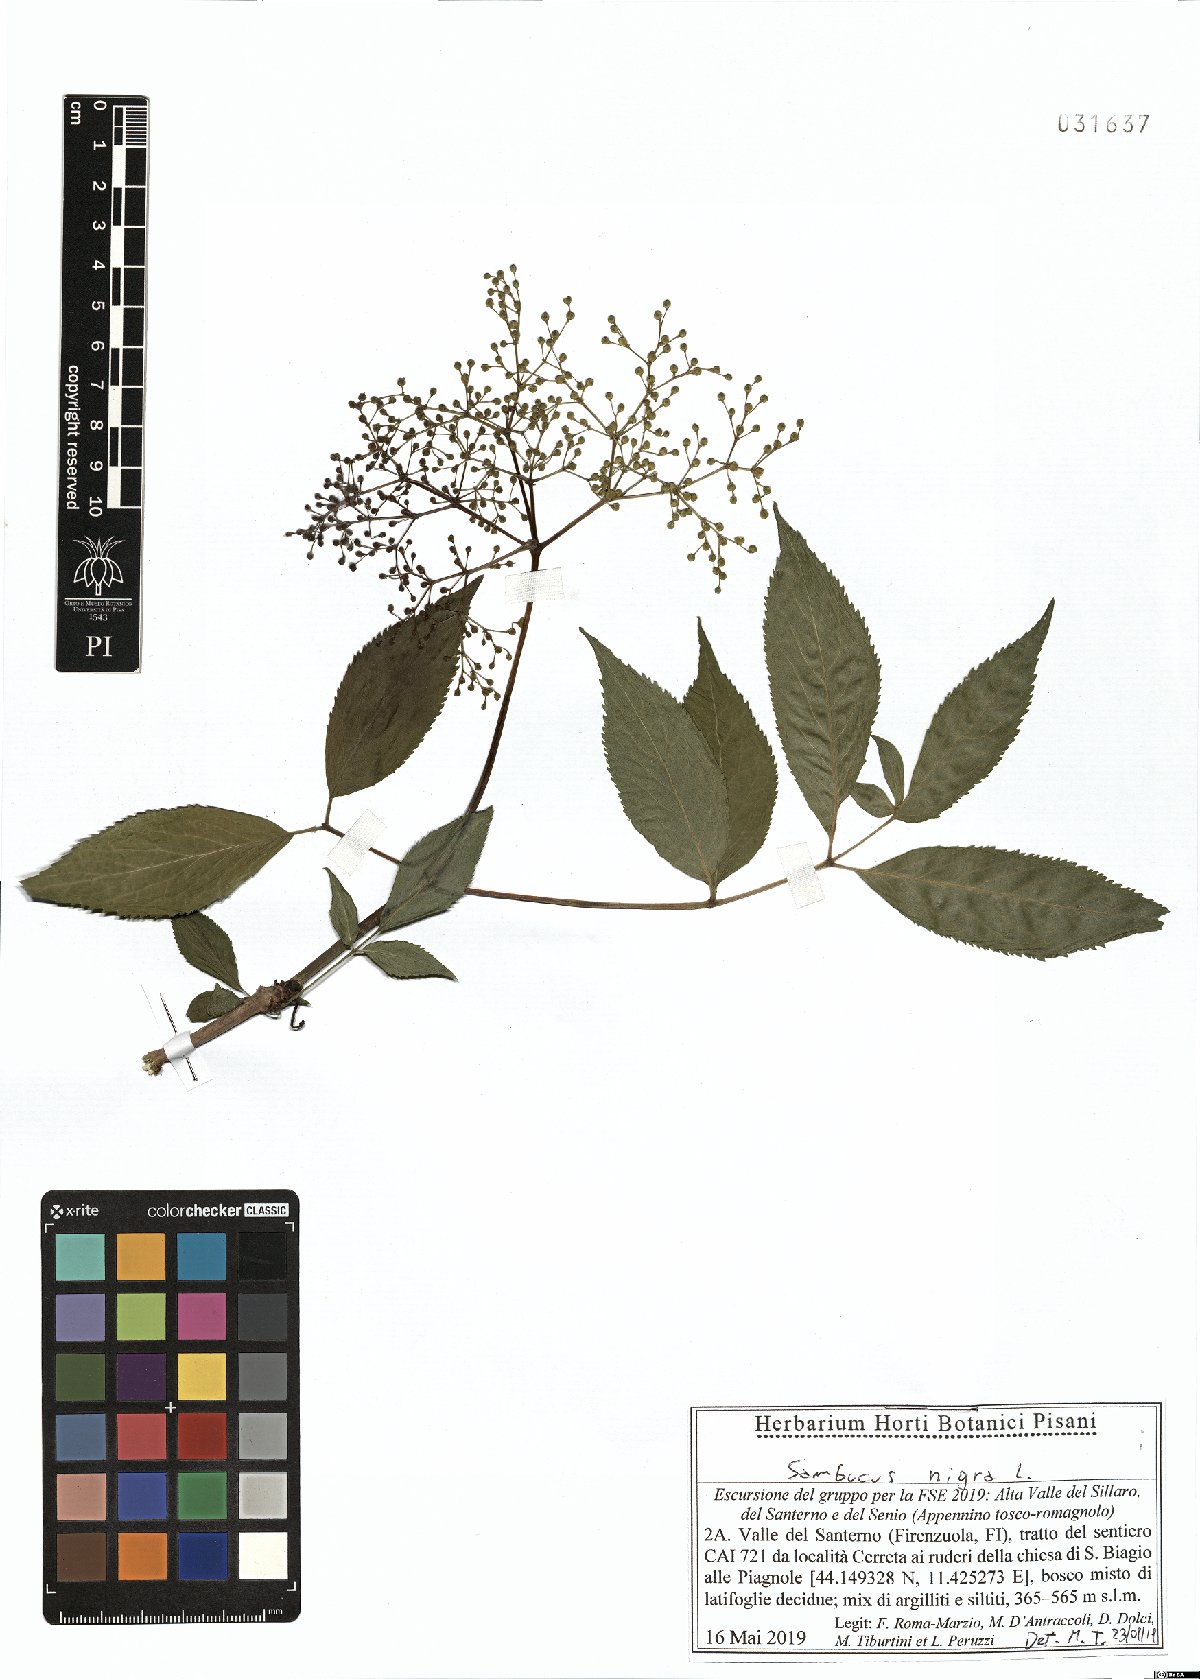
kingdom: Plantae
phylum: Tracheophyta
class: Magnoliopsida
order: Dipsacales
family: Viburnaceae
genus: Sambucus
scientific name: Sambucus nigra
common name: Elder
